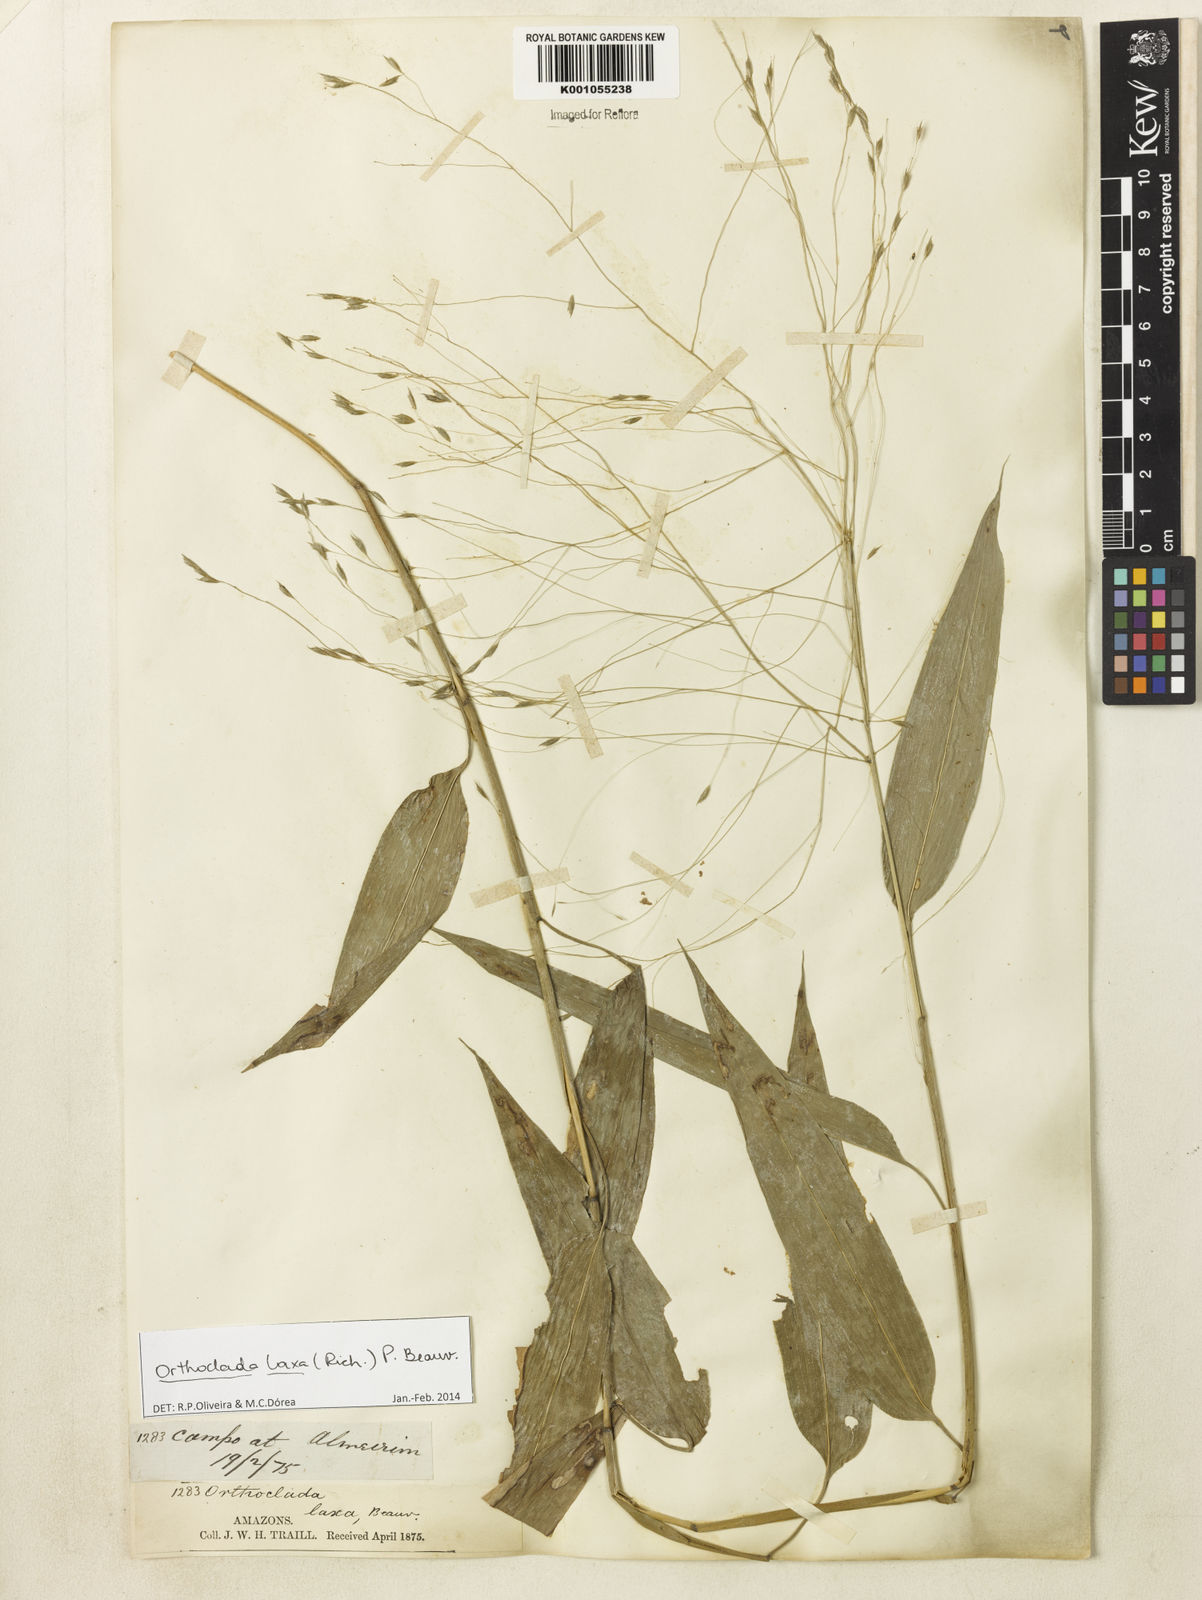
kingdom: Plantae
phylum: Tracheophyta
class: Liliopsida
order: Poales
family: Poaceae
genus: Orthoclada
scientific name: Orthoclada laxa
